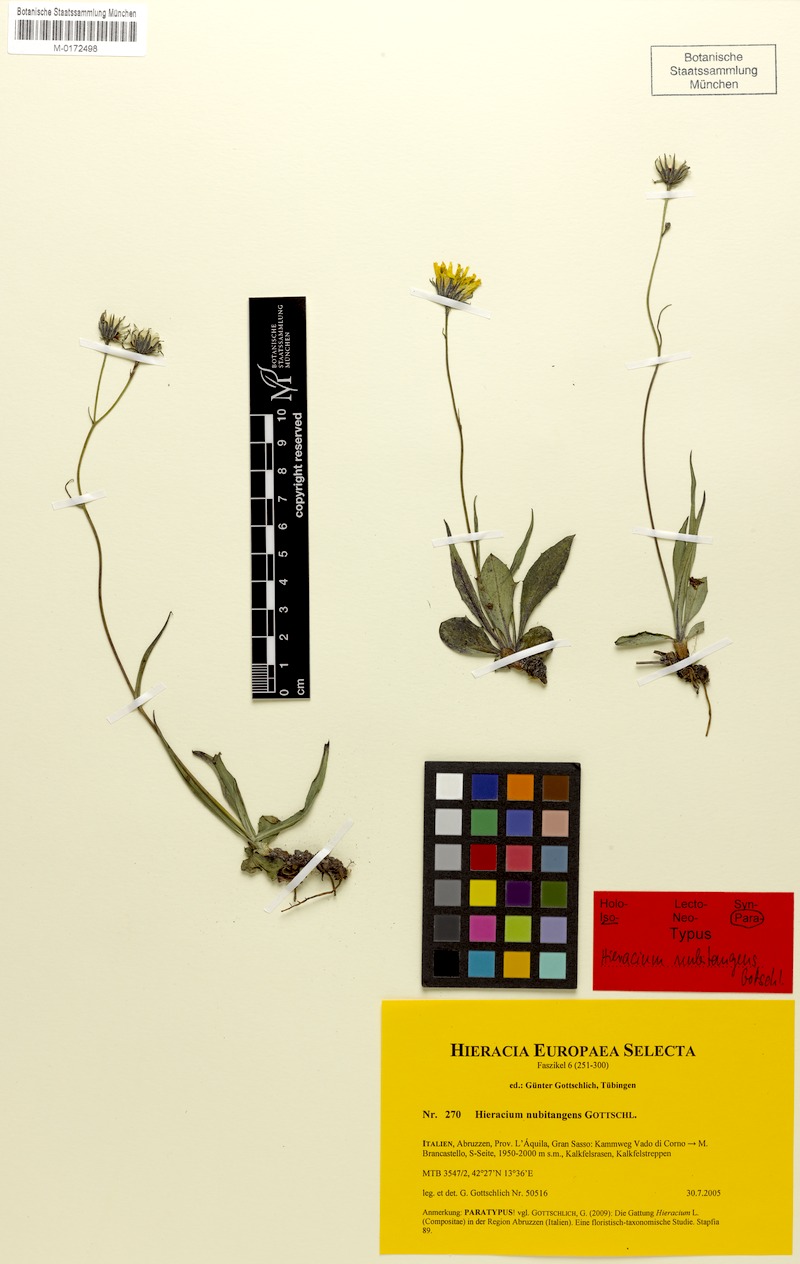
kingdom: Plantae
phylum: Tracheophyta
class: Magnoliopsida
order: Asterales
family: Asteraceae
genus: Hieracium
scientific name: Hieracium nubitangens
